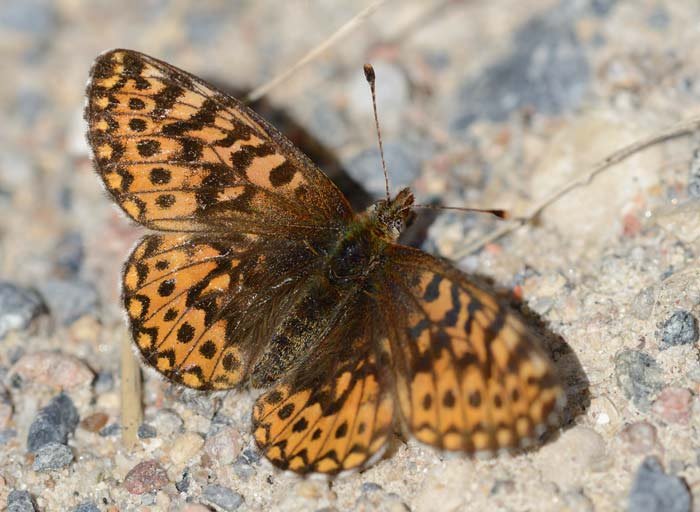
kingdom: Animalia
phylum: Arthropoda
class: Insecta
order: Lepidoptera
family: Nymphalidae
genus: Boloria
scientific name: Boloria freija
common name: Freija Fritillary
